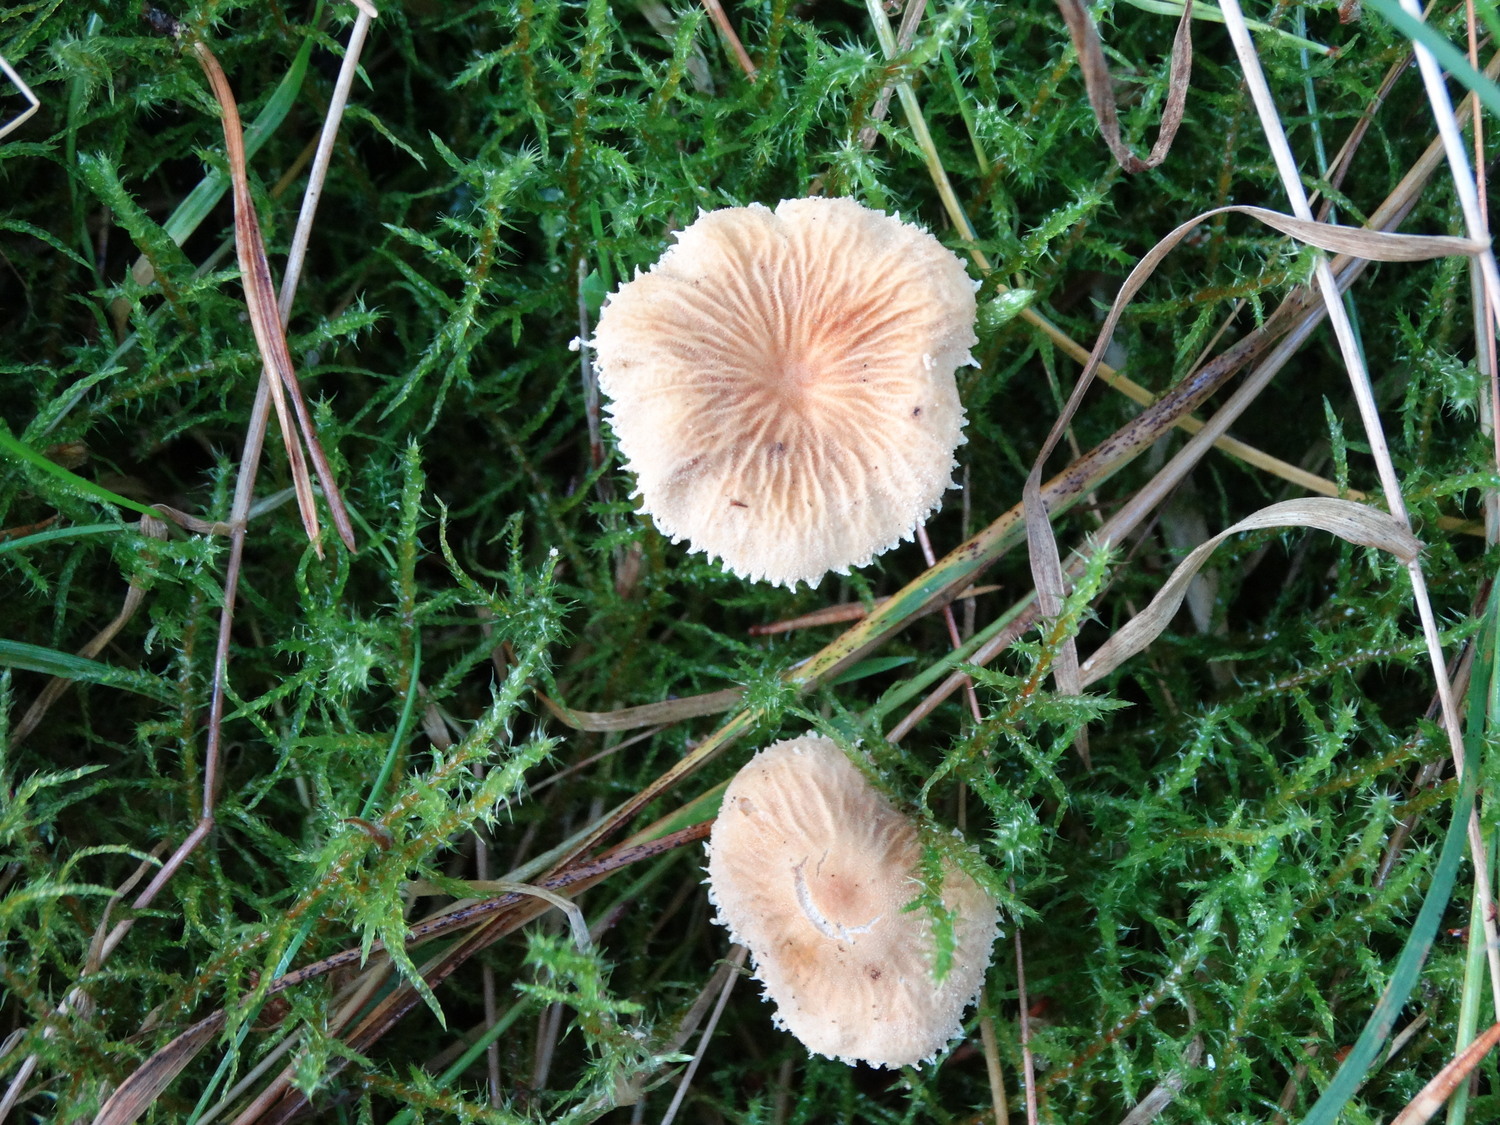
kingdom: Fungi
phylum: Basidiomycota
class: Agaricomycetes
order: Agaricales
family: Tricholomataceae
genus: Cystoderma
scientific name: Cystoderma amianthinum
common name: okkergul grynhat
